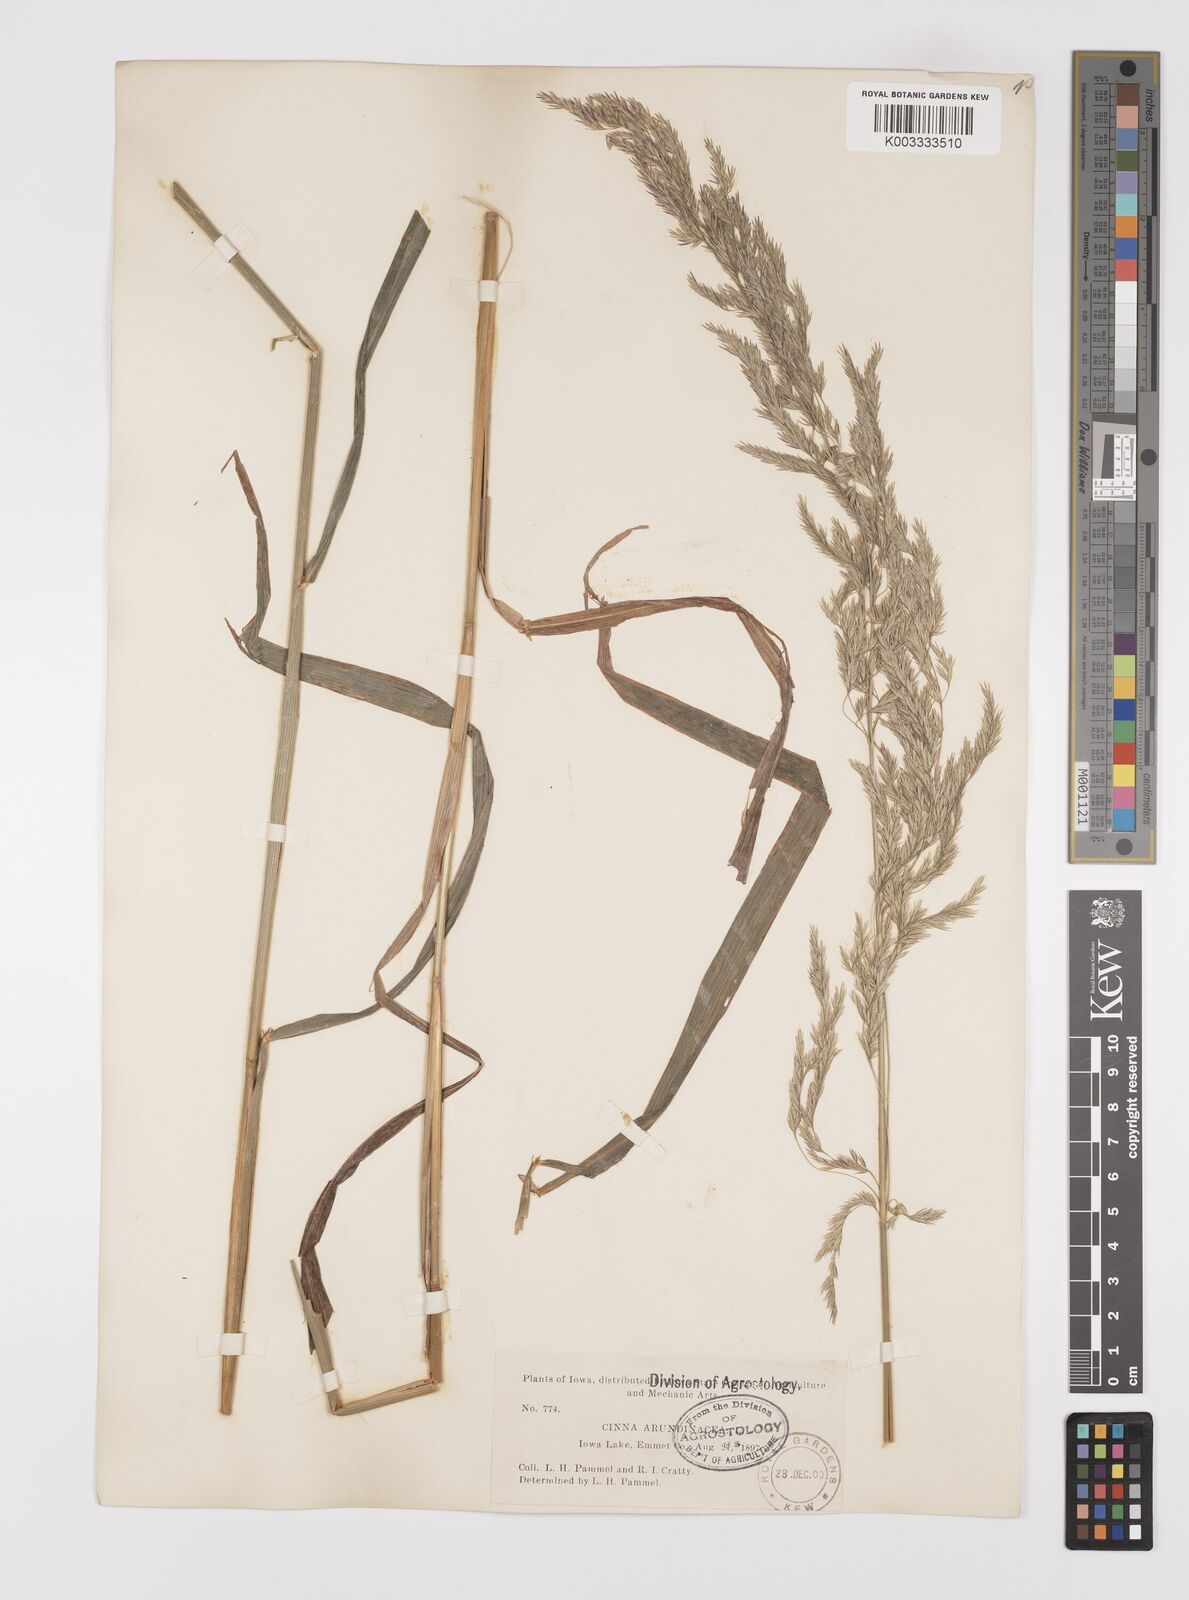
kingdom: Plantae
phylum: Tracheophyta
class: Liliopsida
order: Poales
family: Poaceae
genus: Cinna
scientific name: Cinna
